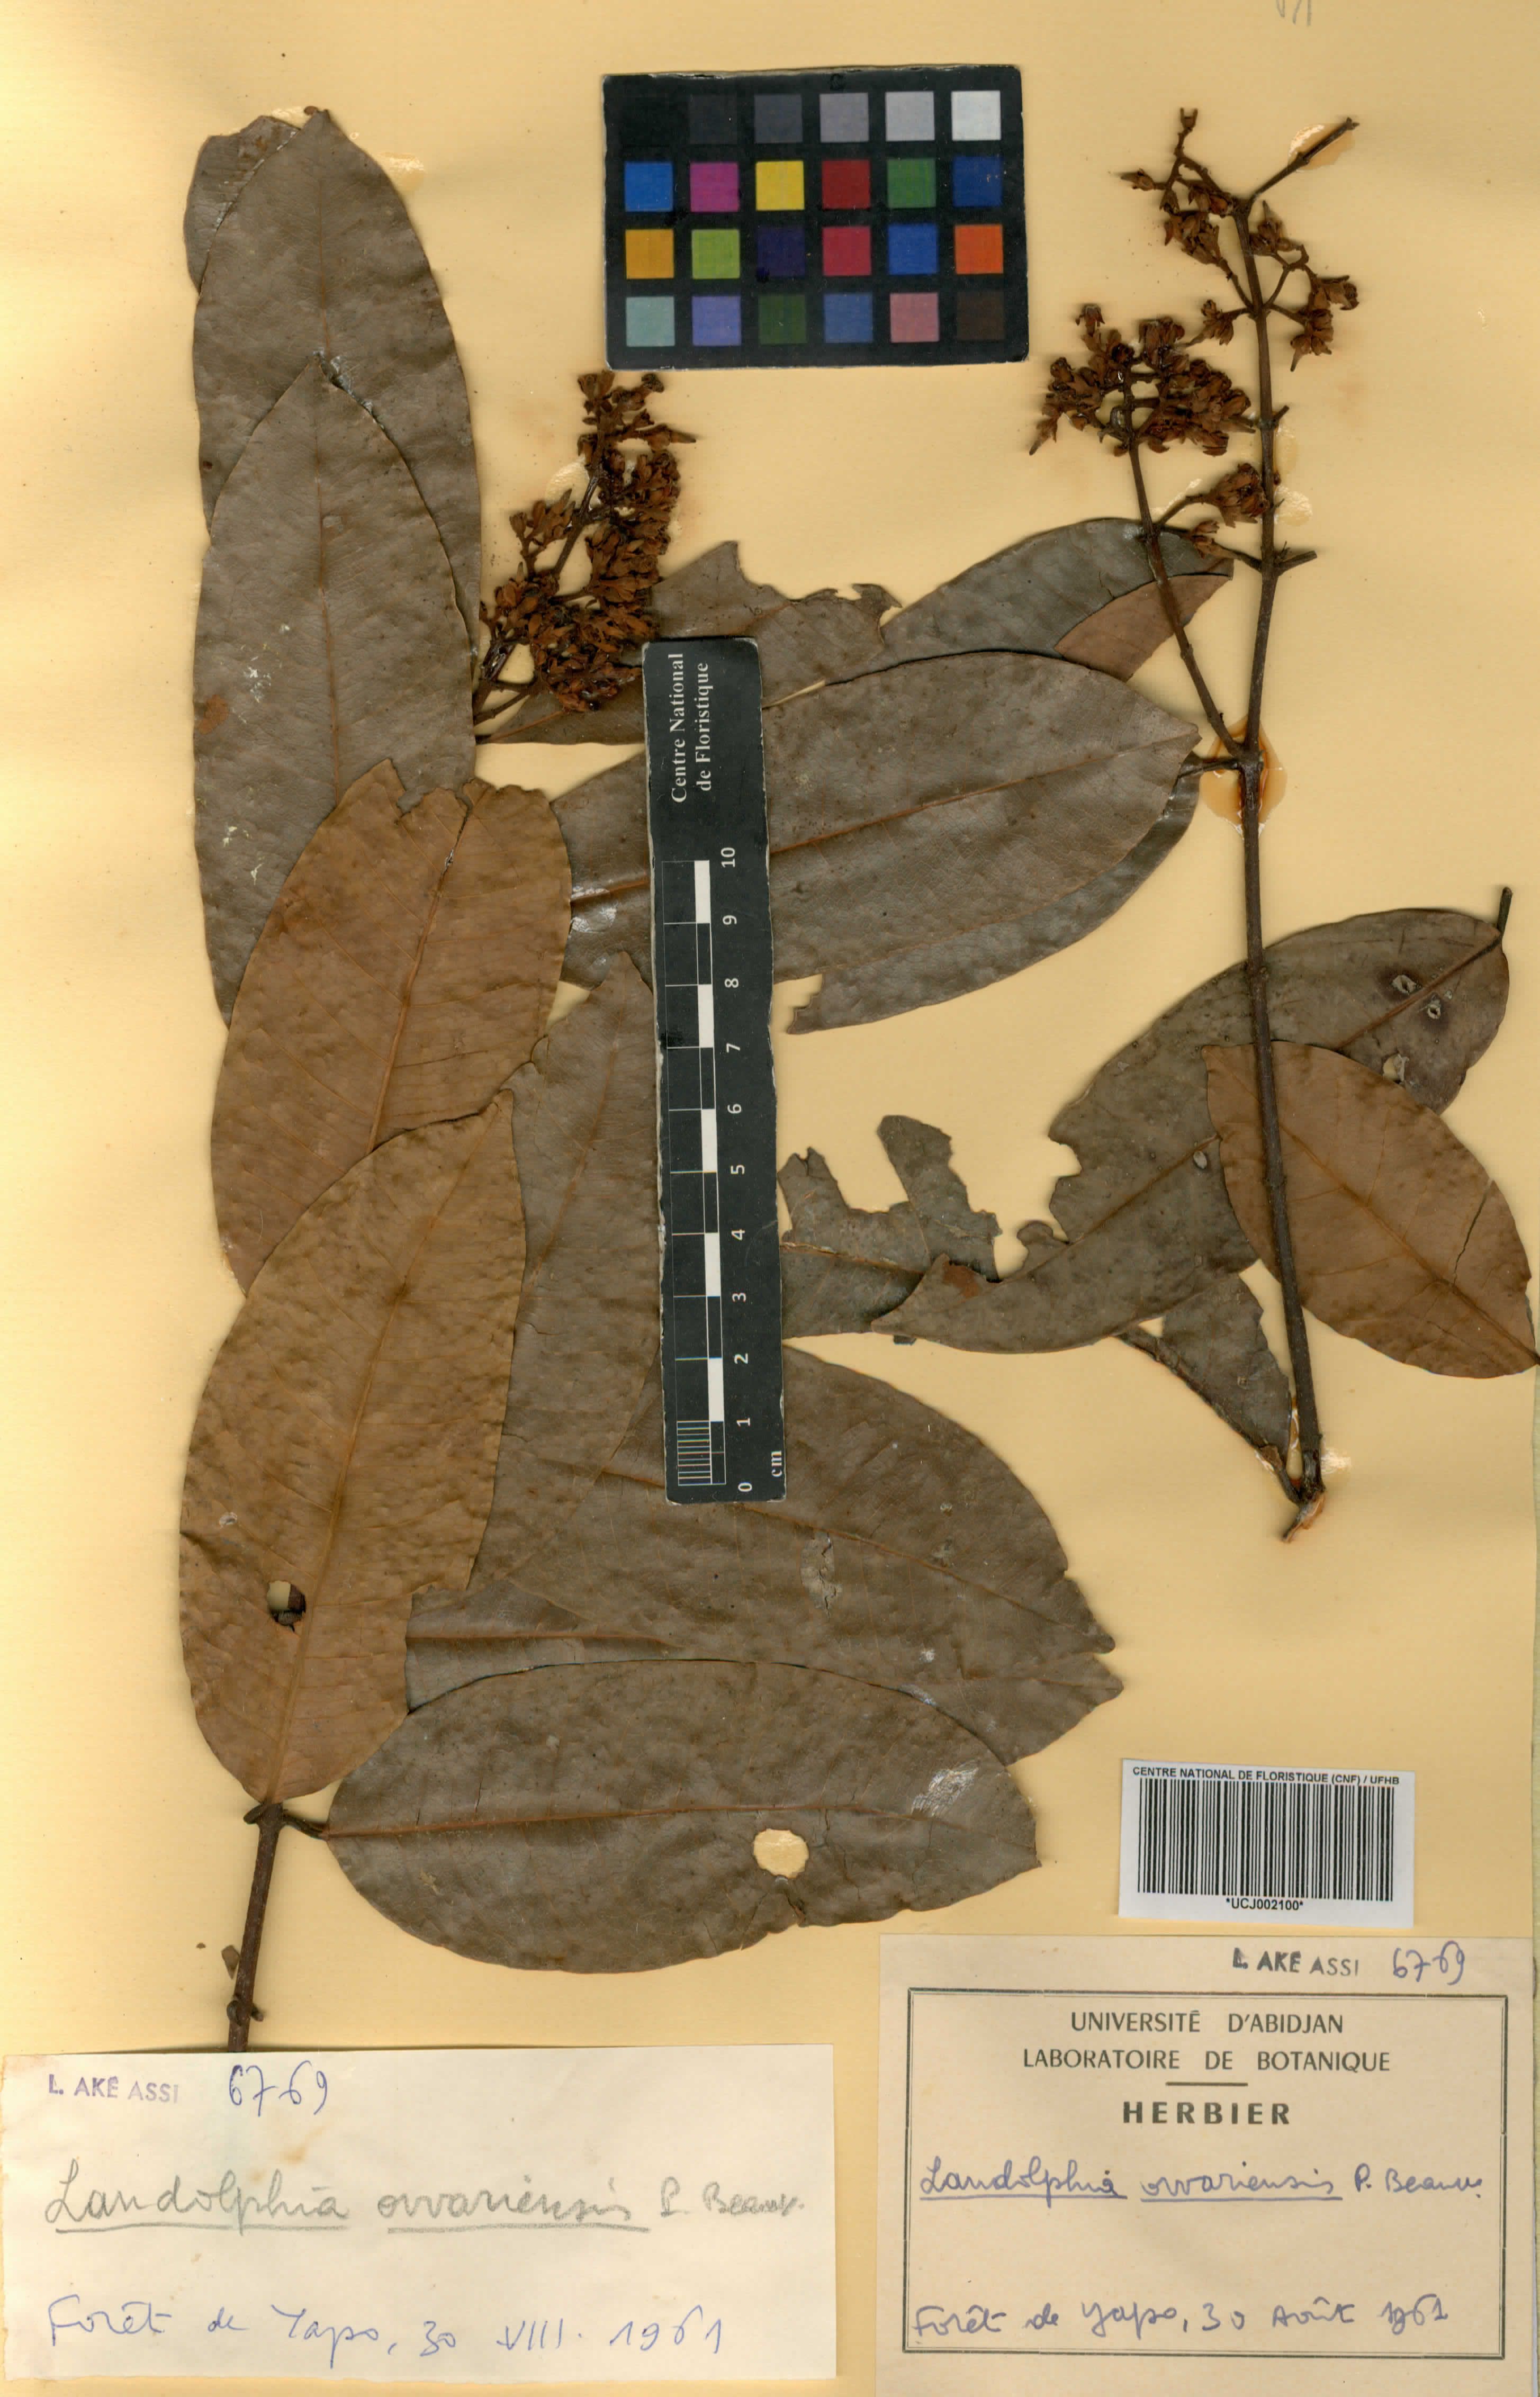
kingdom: Plantae
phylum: Tracheophyta
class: Magnoliopsida
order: Gentianales
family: Apocynaceae
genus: Landolphia
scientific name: Landolphia owariensis
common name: White-ball-rubber
